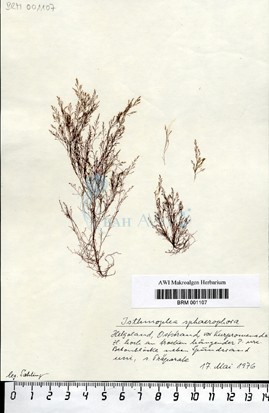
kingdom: Chromista
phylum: Ochrophyta
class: Phaeophyceae
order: Ectocarpales
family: Chordariaceae
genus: Isthmoplea
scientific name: Isthmoplea sphaerophora
